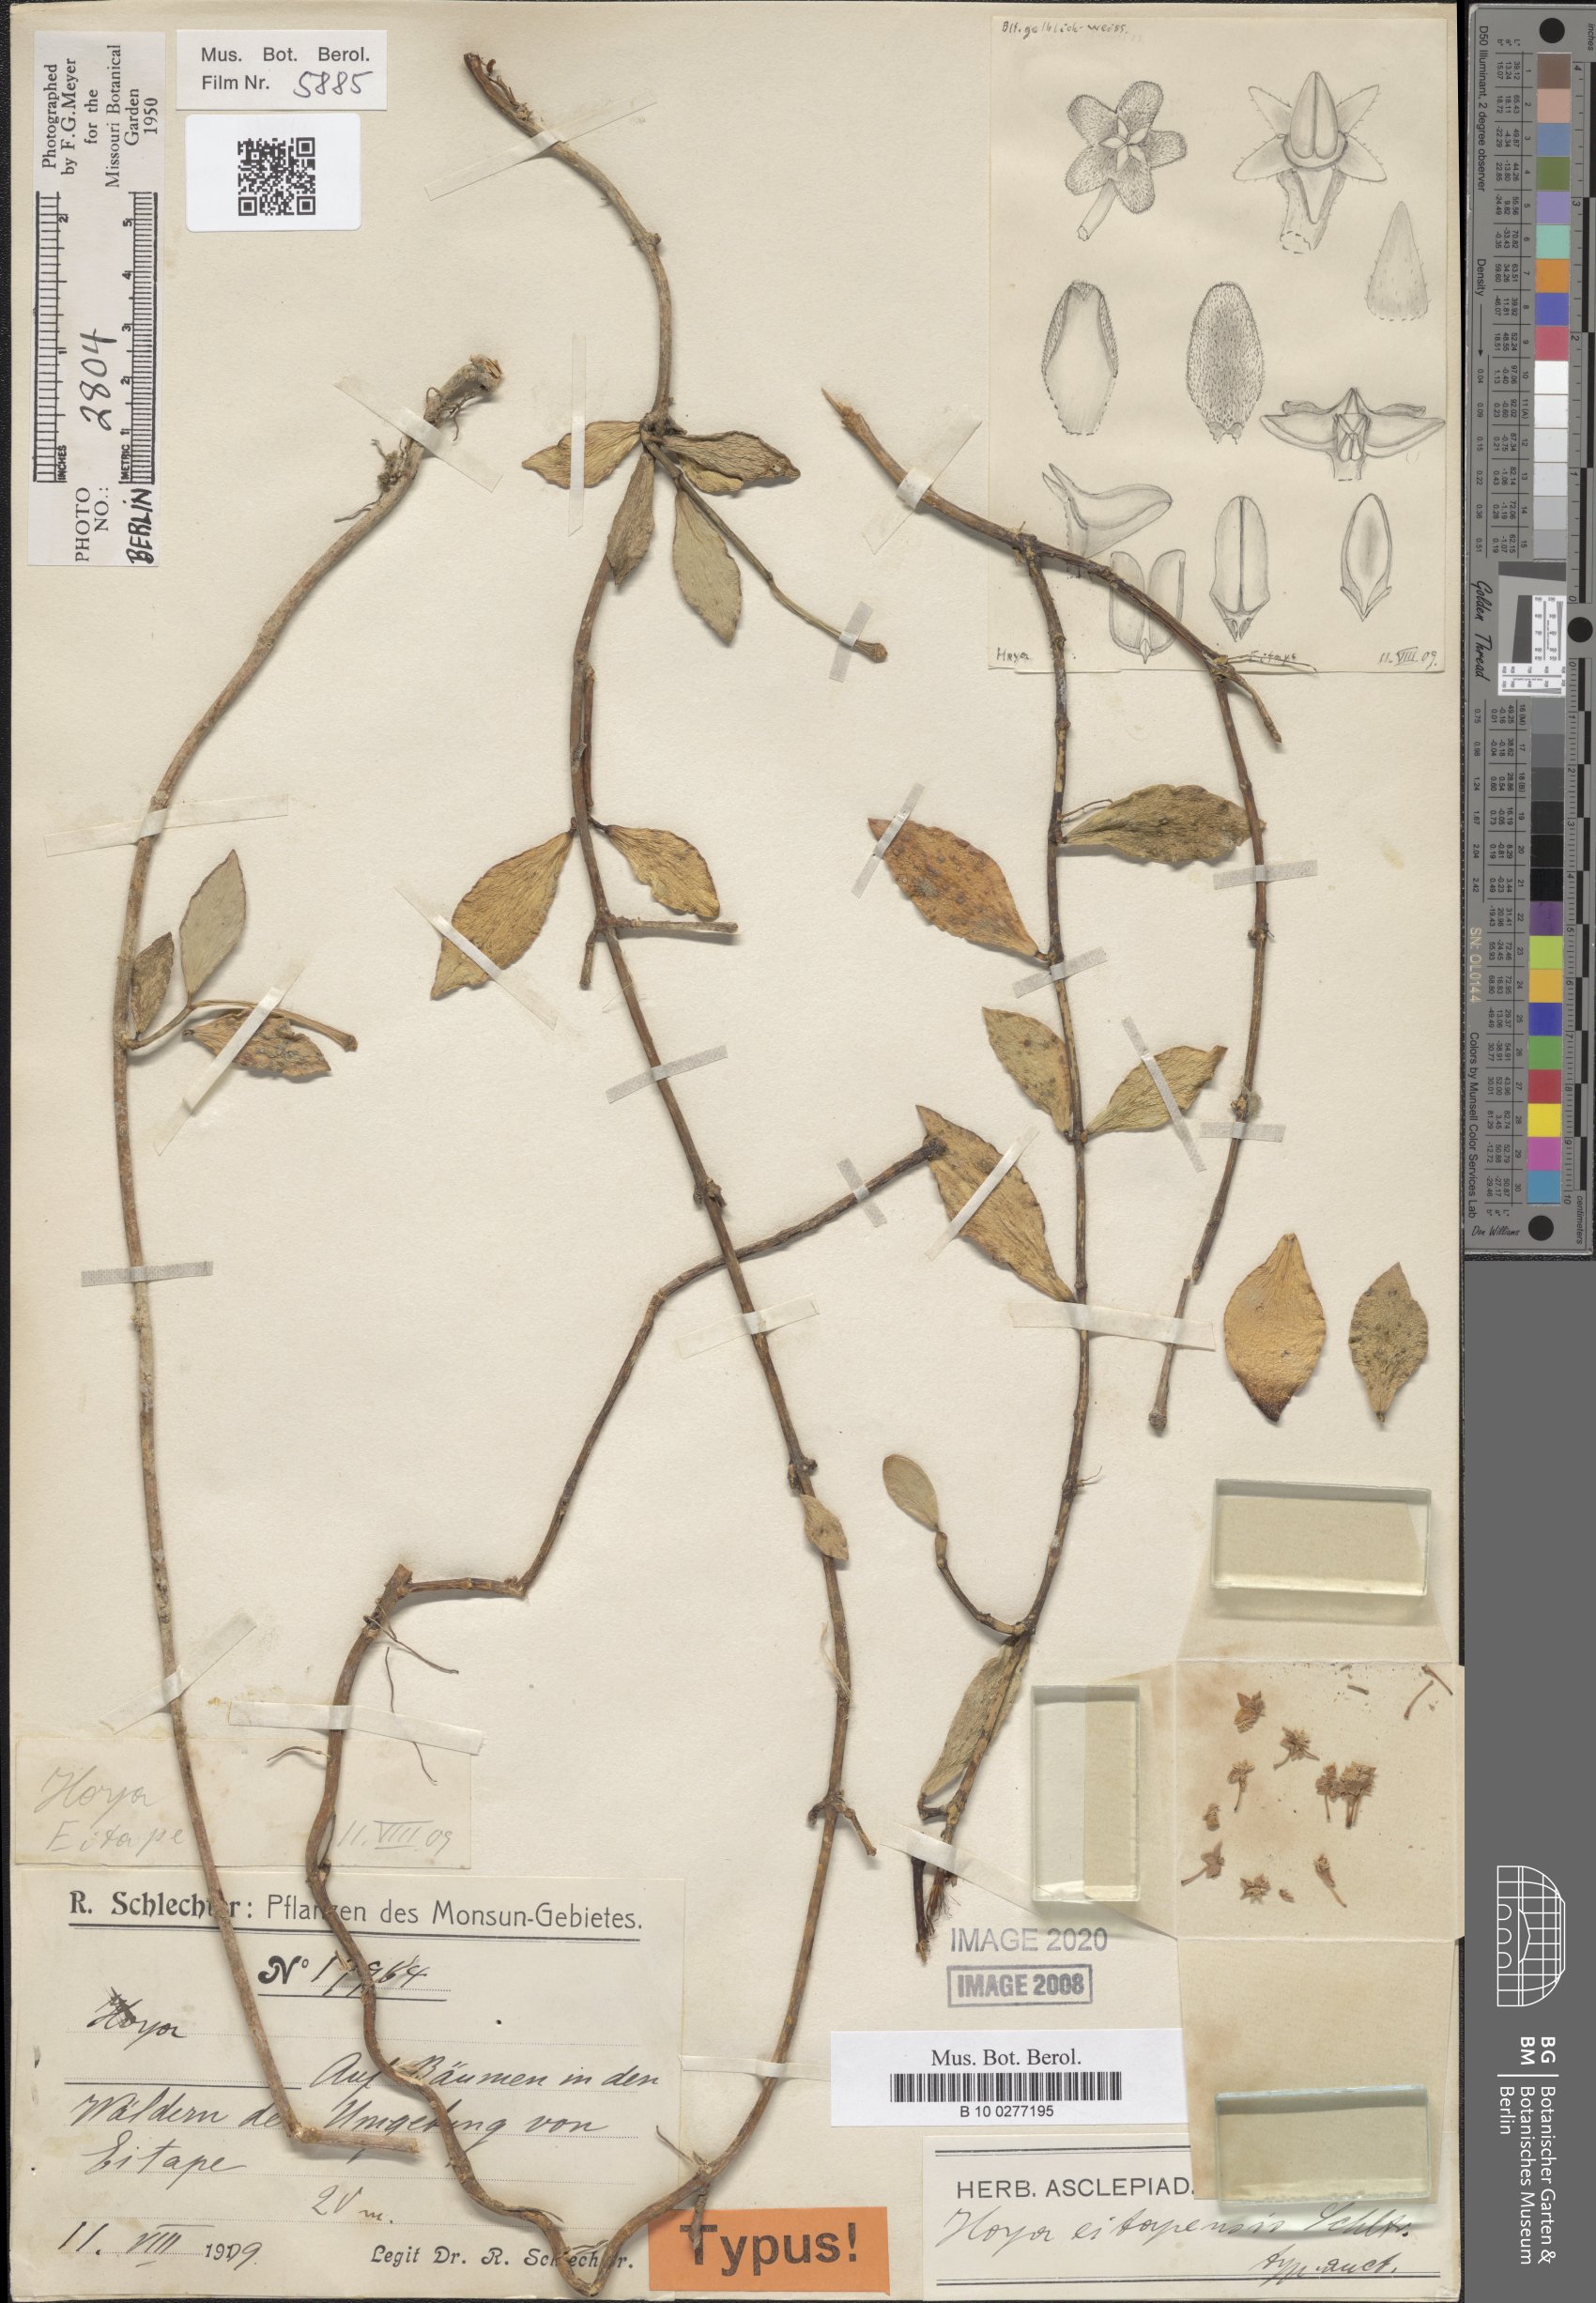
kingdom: Plantae
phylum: Tracheophyta
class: Magnoliopsida
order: Gentianales
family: Apocynaceae
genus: Hoya
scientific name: Hoya eitapensis
